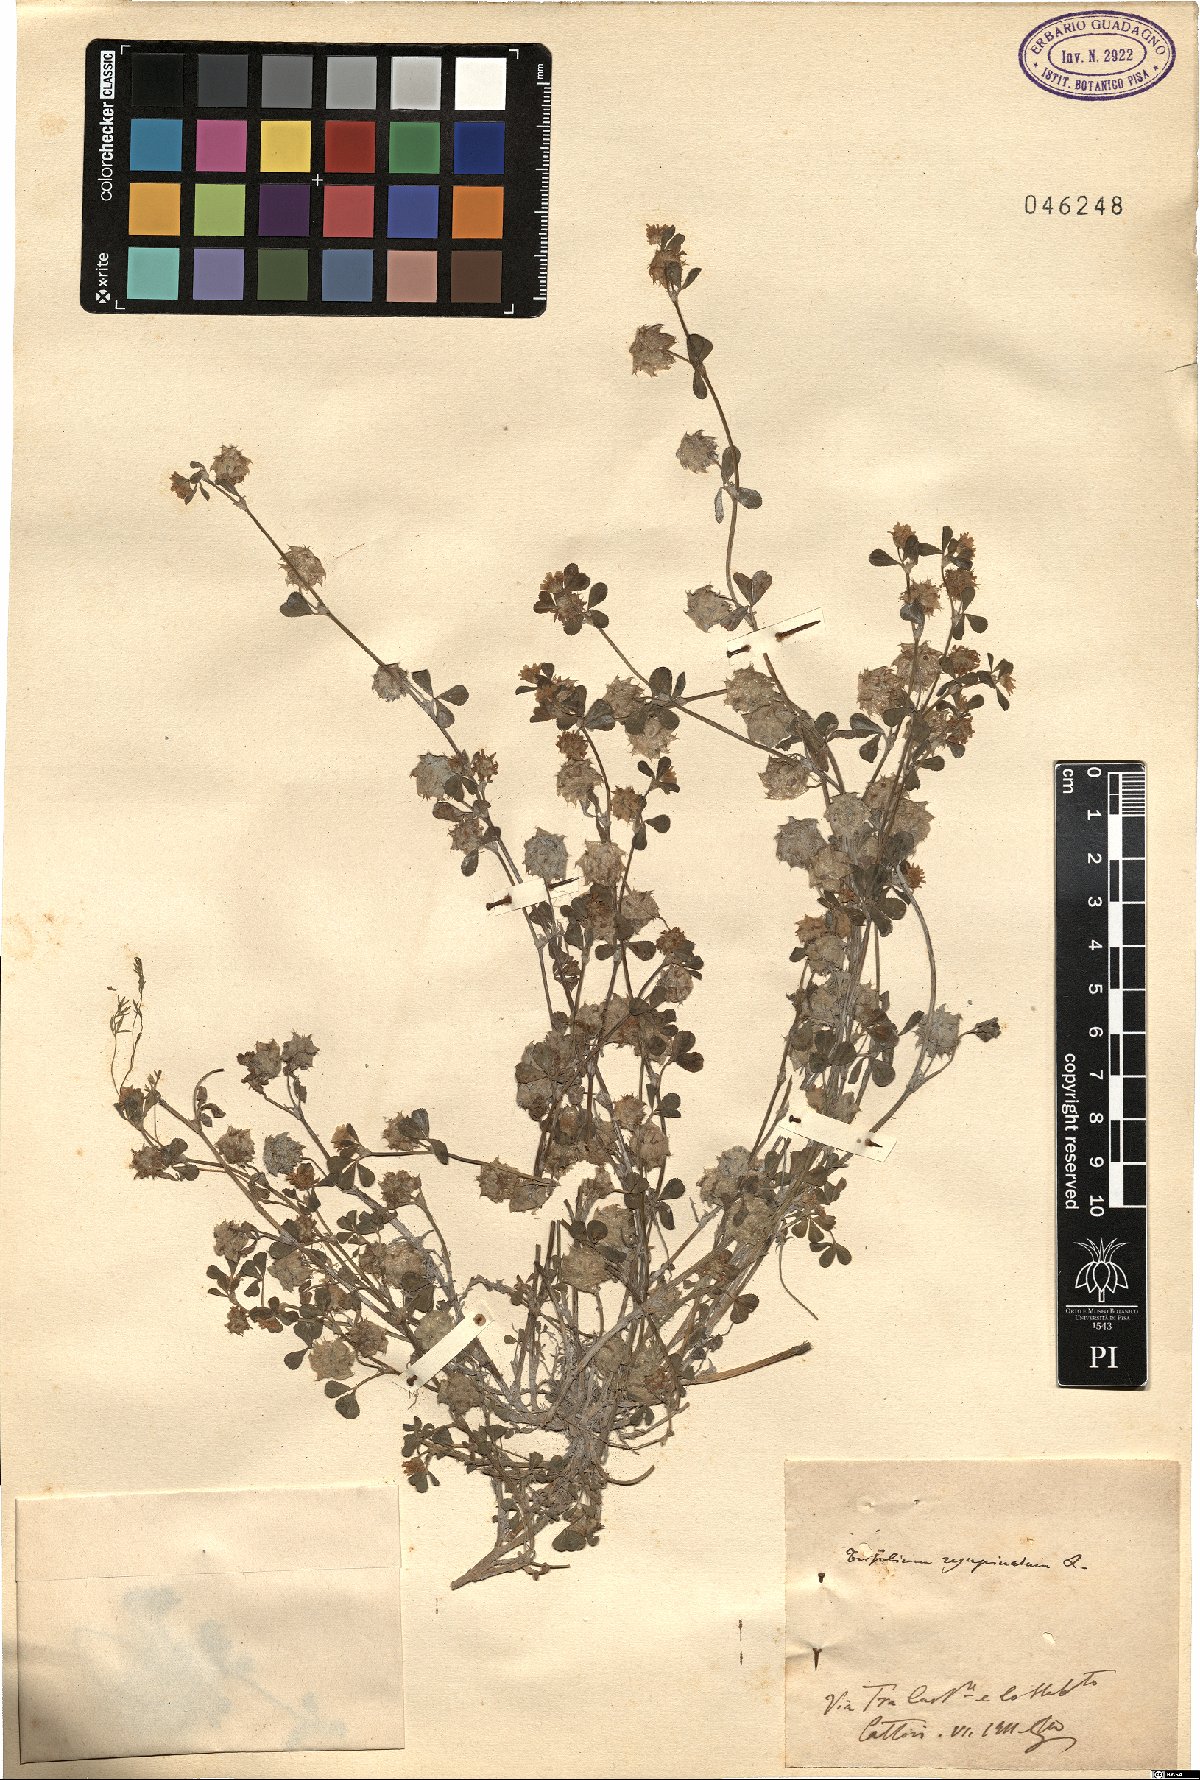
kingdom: Plantae
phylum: Tracheophyta
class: Magnoliopsida
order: Fabales
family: Fabaceae
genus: Trifolium
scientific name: Trifolium resupinatum
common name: Reversed clover
